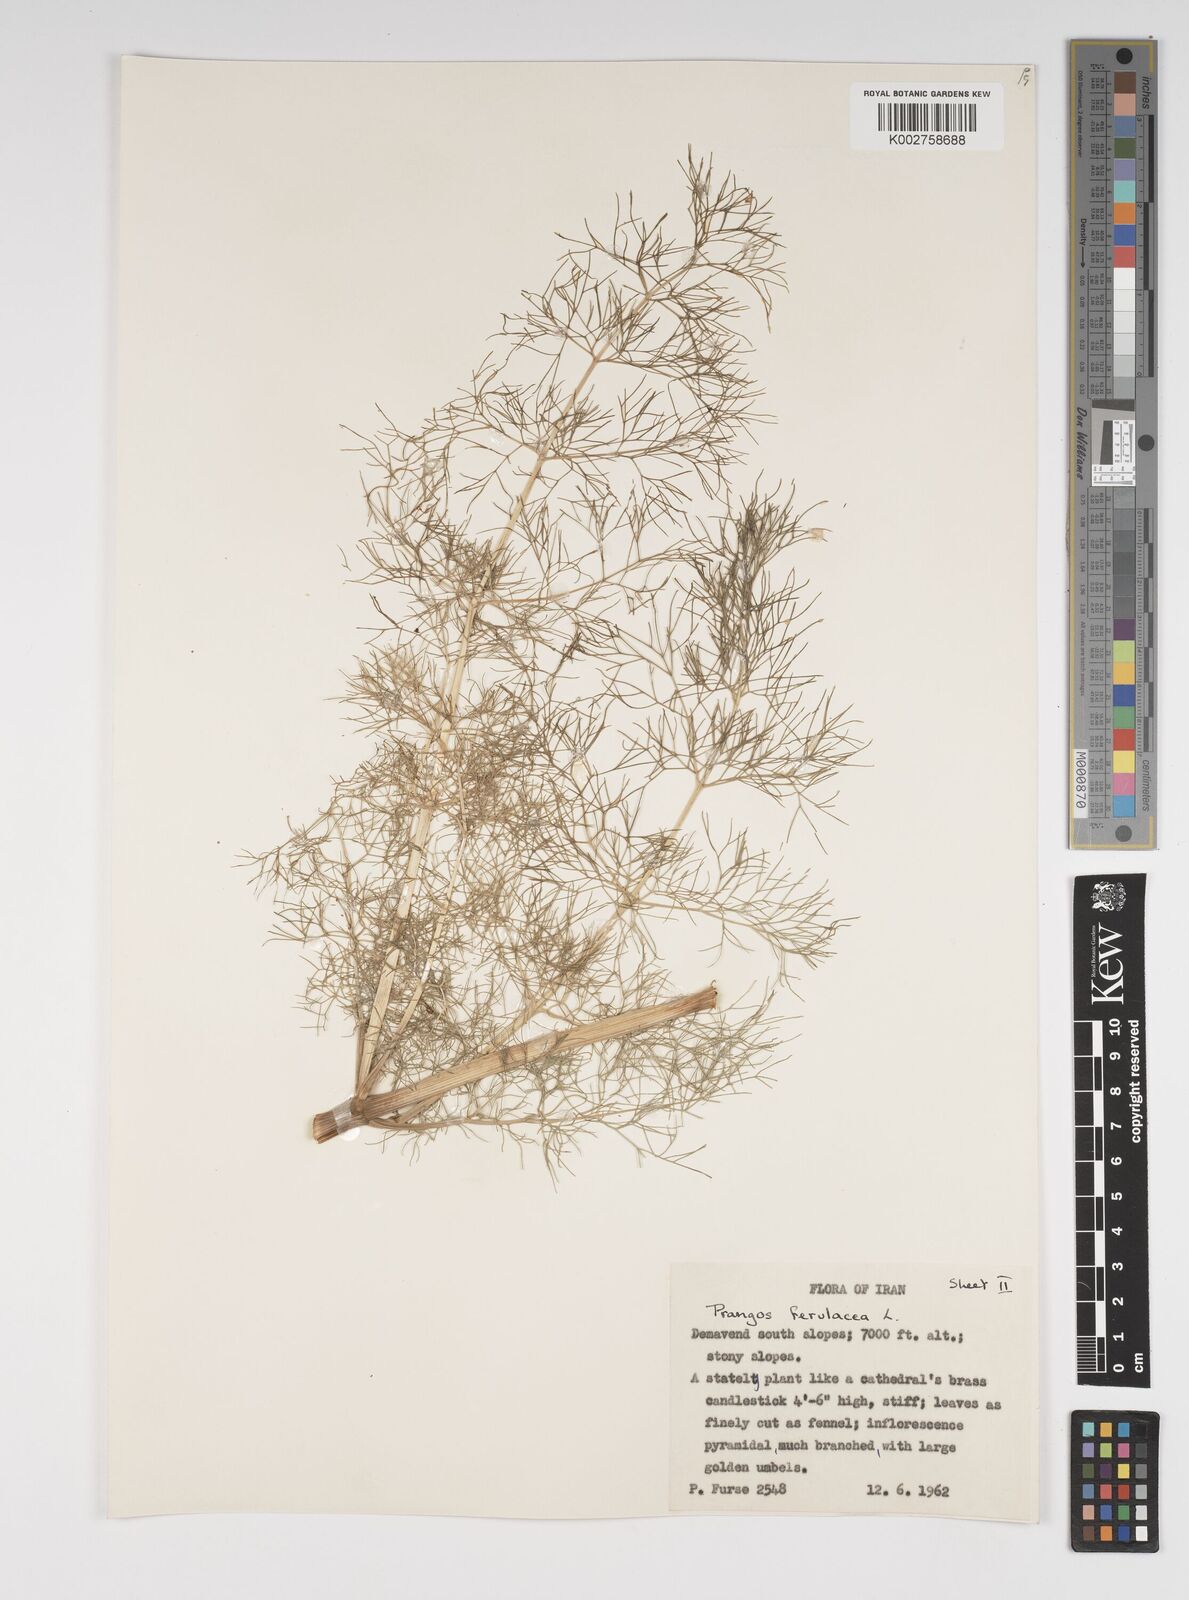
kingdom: Plantae
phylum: Tracheophyta
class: Magnoliopsida
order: Apiales
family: Apiaceae
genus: Prangos
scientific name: Prangos ferulacea
